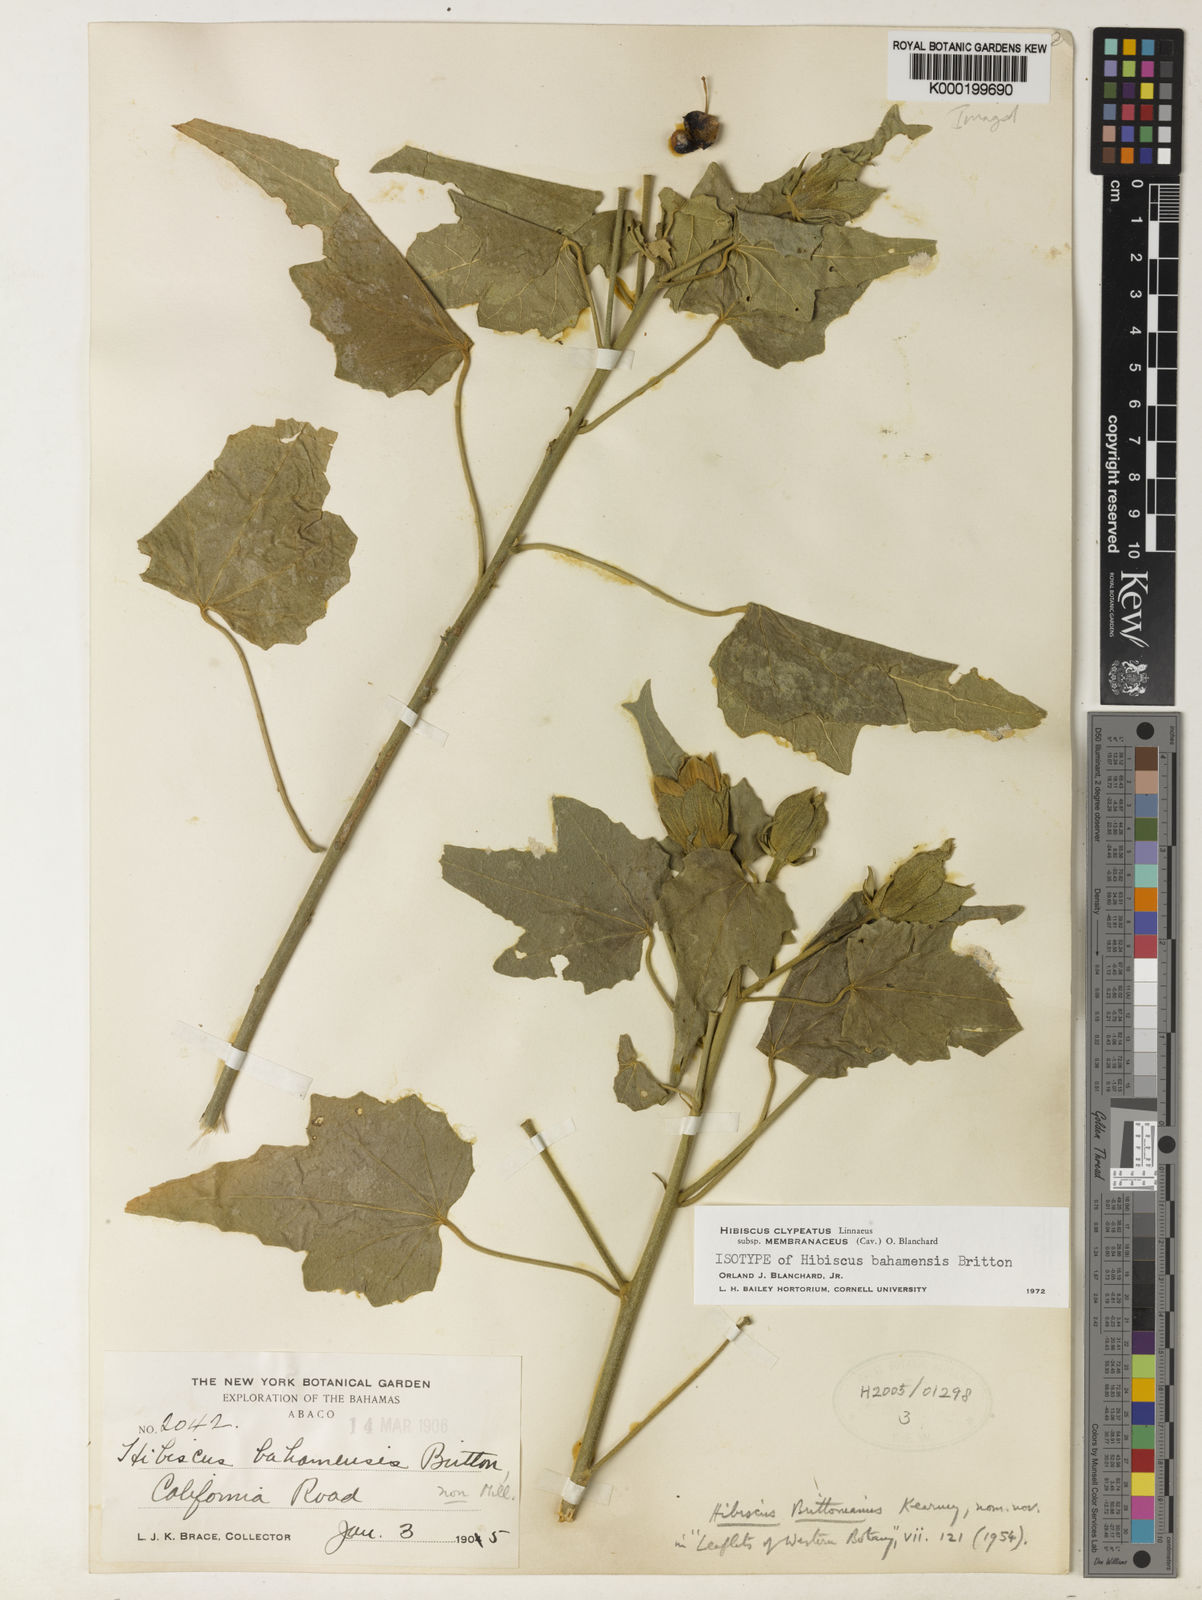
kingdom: Plantae
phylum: Tracheophyta
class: Magnoliopsida
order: Malvales
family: Malvaceae
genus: Hibiscus
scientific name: Hibiscus clypeatus
